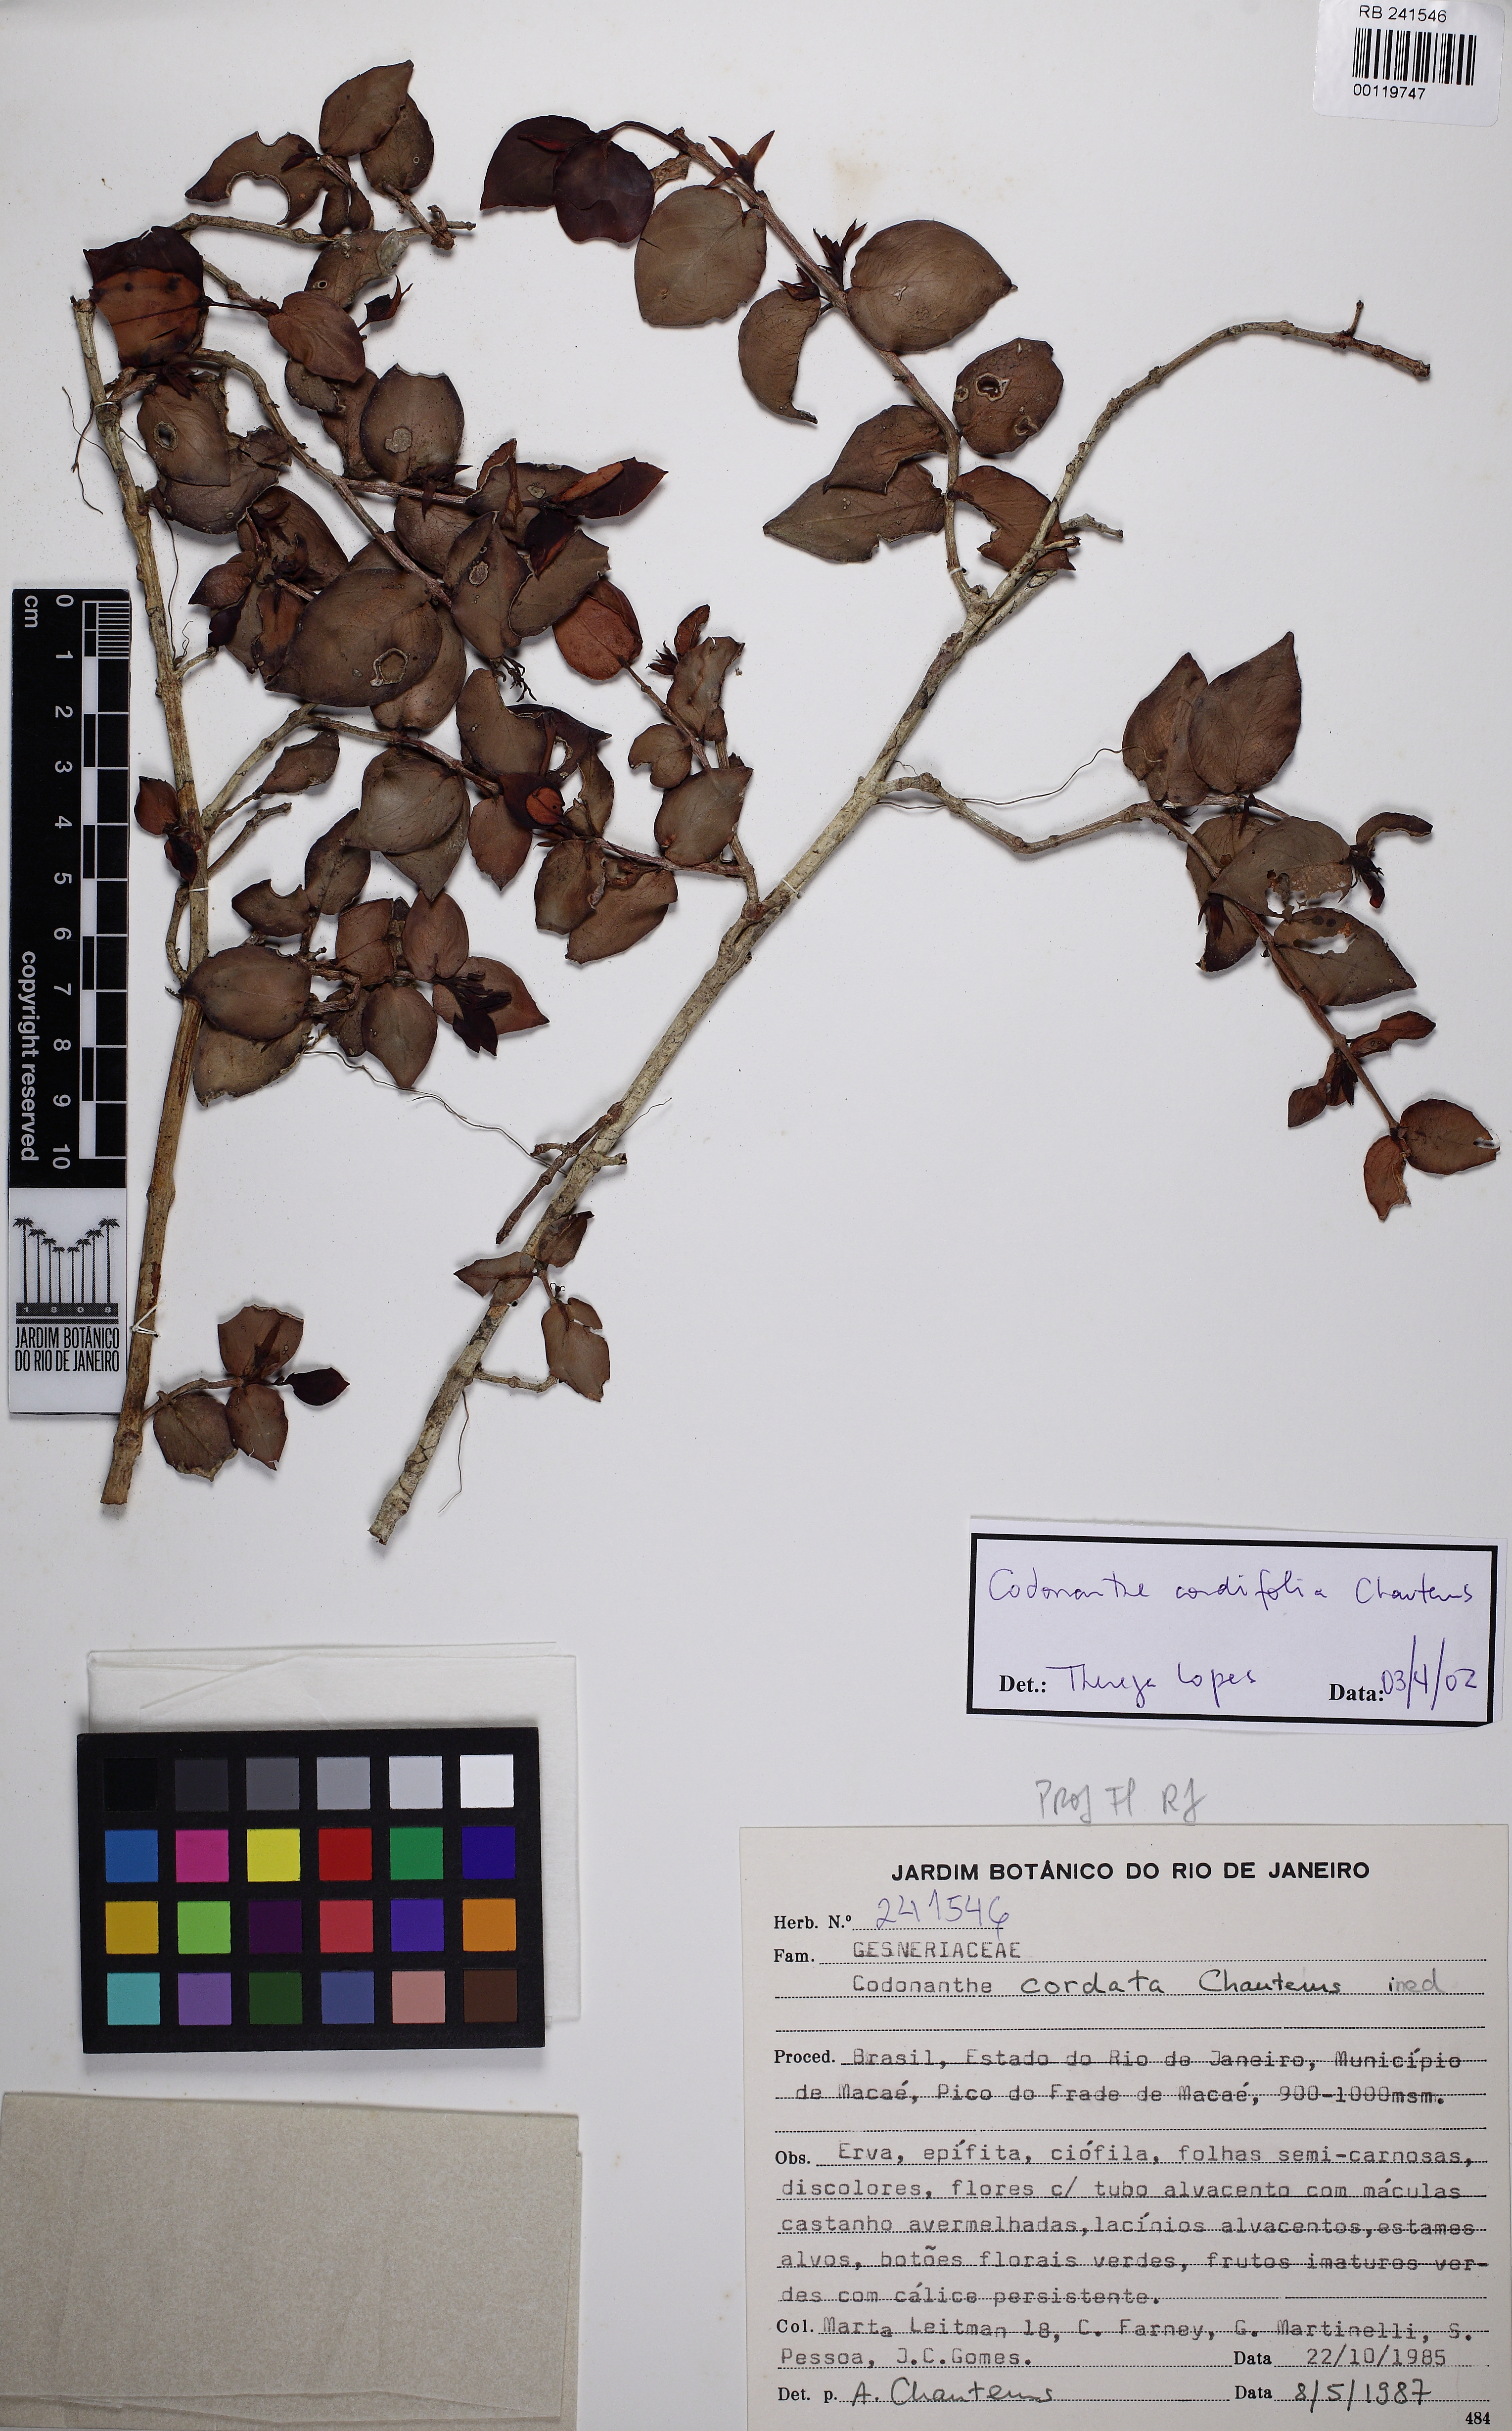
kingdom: Plantae
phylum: Tracheophyta
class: Magnoliopsida
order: Lamiales
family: Gesneriaceae
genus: Codonanthe
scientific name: Codonanthe cordifolia
